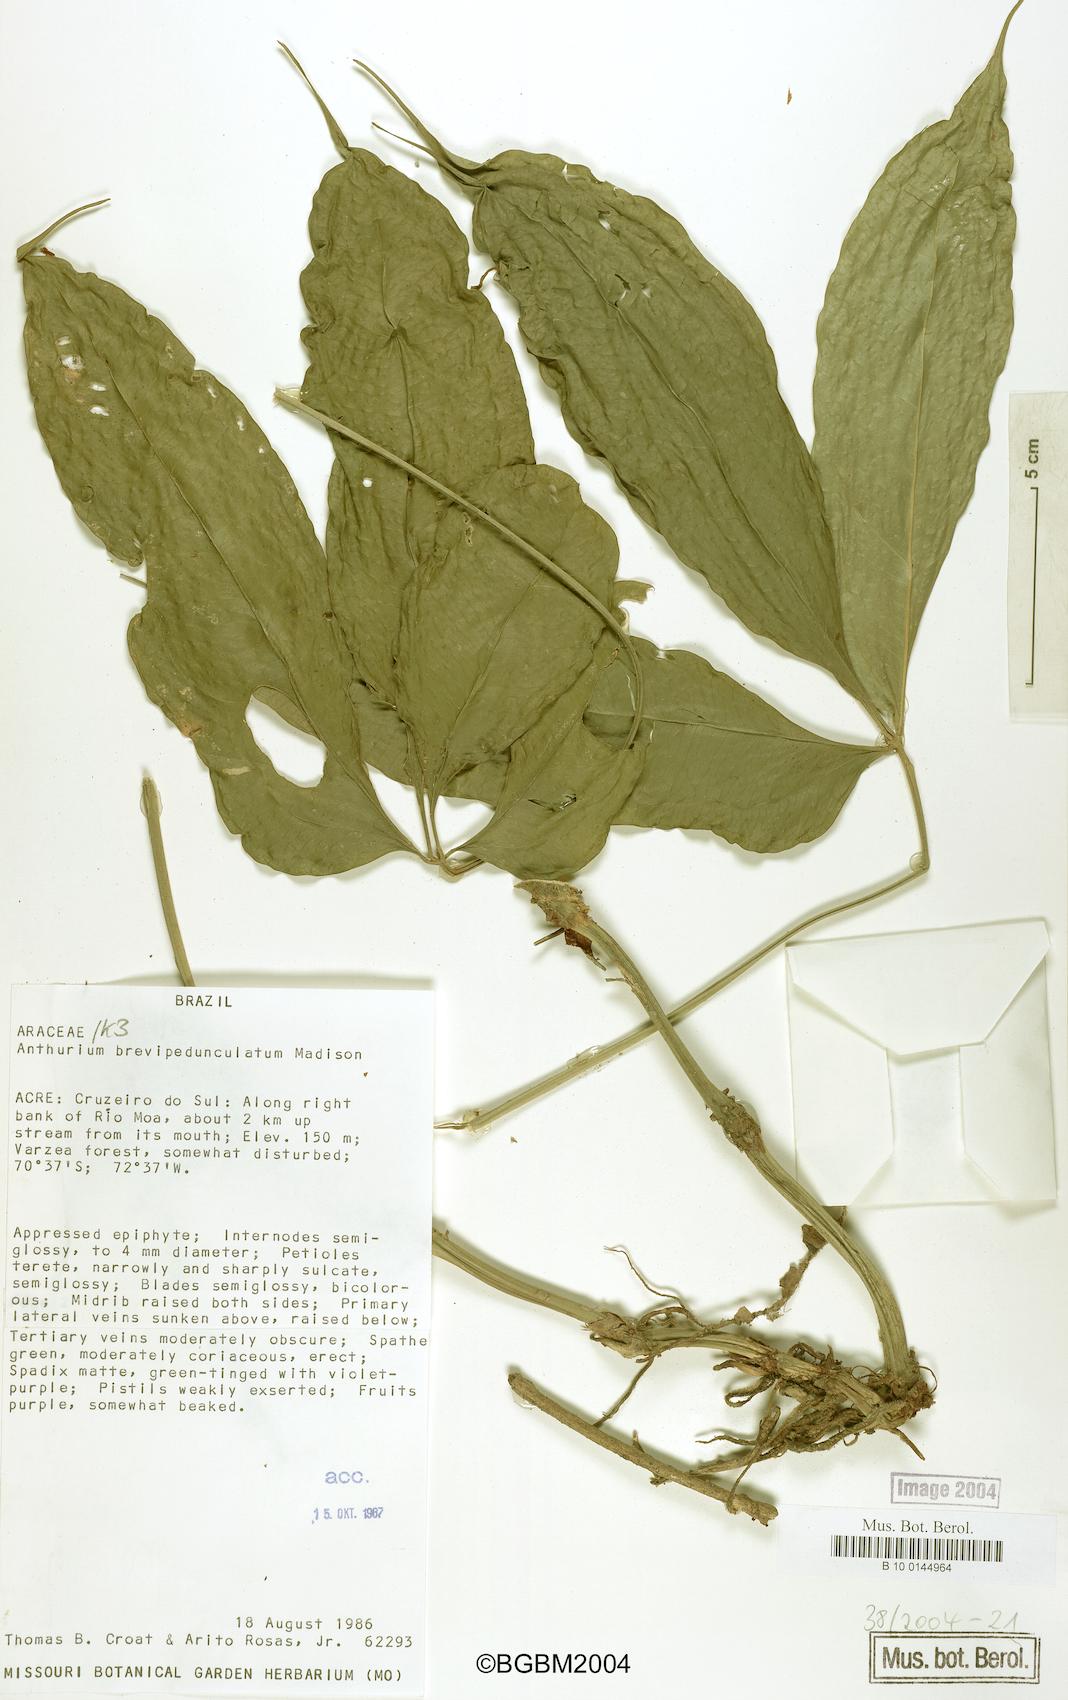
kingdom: Plantae
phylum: Tracheophyta
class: Liliopsida
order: Alismatales
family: Araceae
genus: Anthurium
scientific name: Anthurium brevipedunculatum
